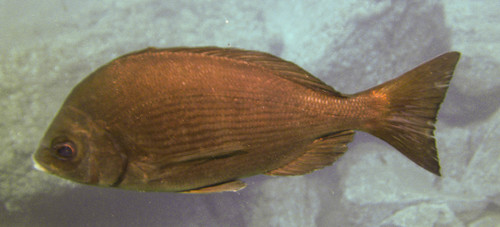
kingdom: Animalia
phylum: Chordata
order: Perciformes
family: Sparidae
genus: Spondyliosoma
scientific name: Spondyliosoma cantharus
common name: Black seabream
